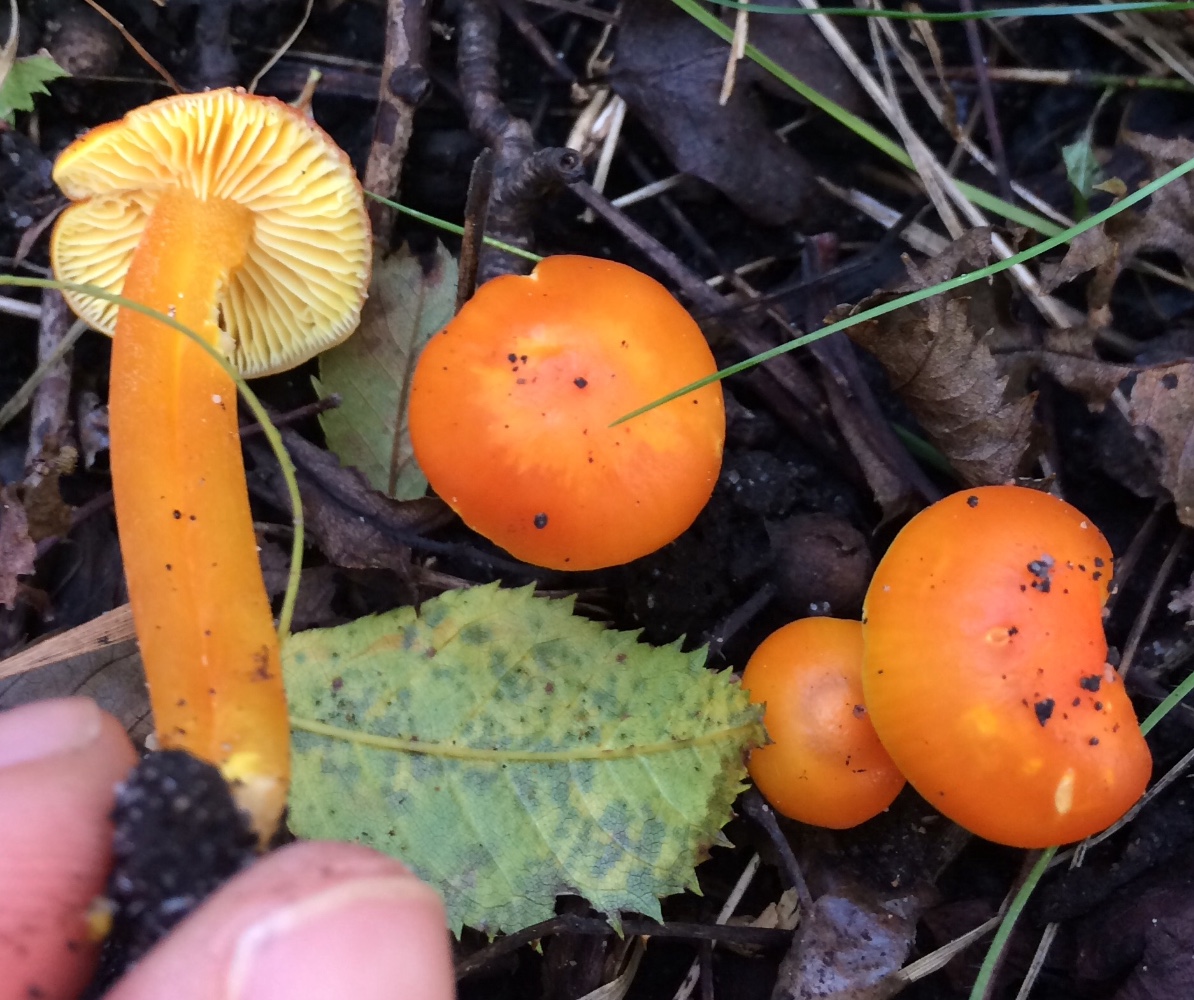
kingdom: Fungi
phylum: Basidiomycota
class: Agaricomycetes
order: Agaricales
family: Hygrophoraceae
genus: Hygrocybe
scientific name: Hygrocybe chlorophana
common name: gul vokshat
